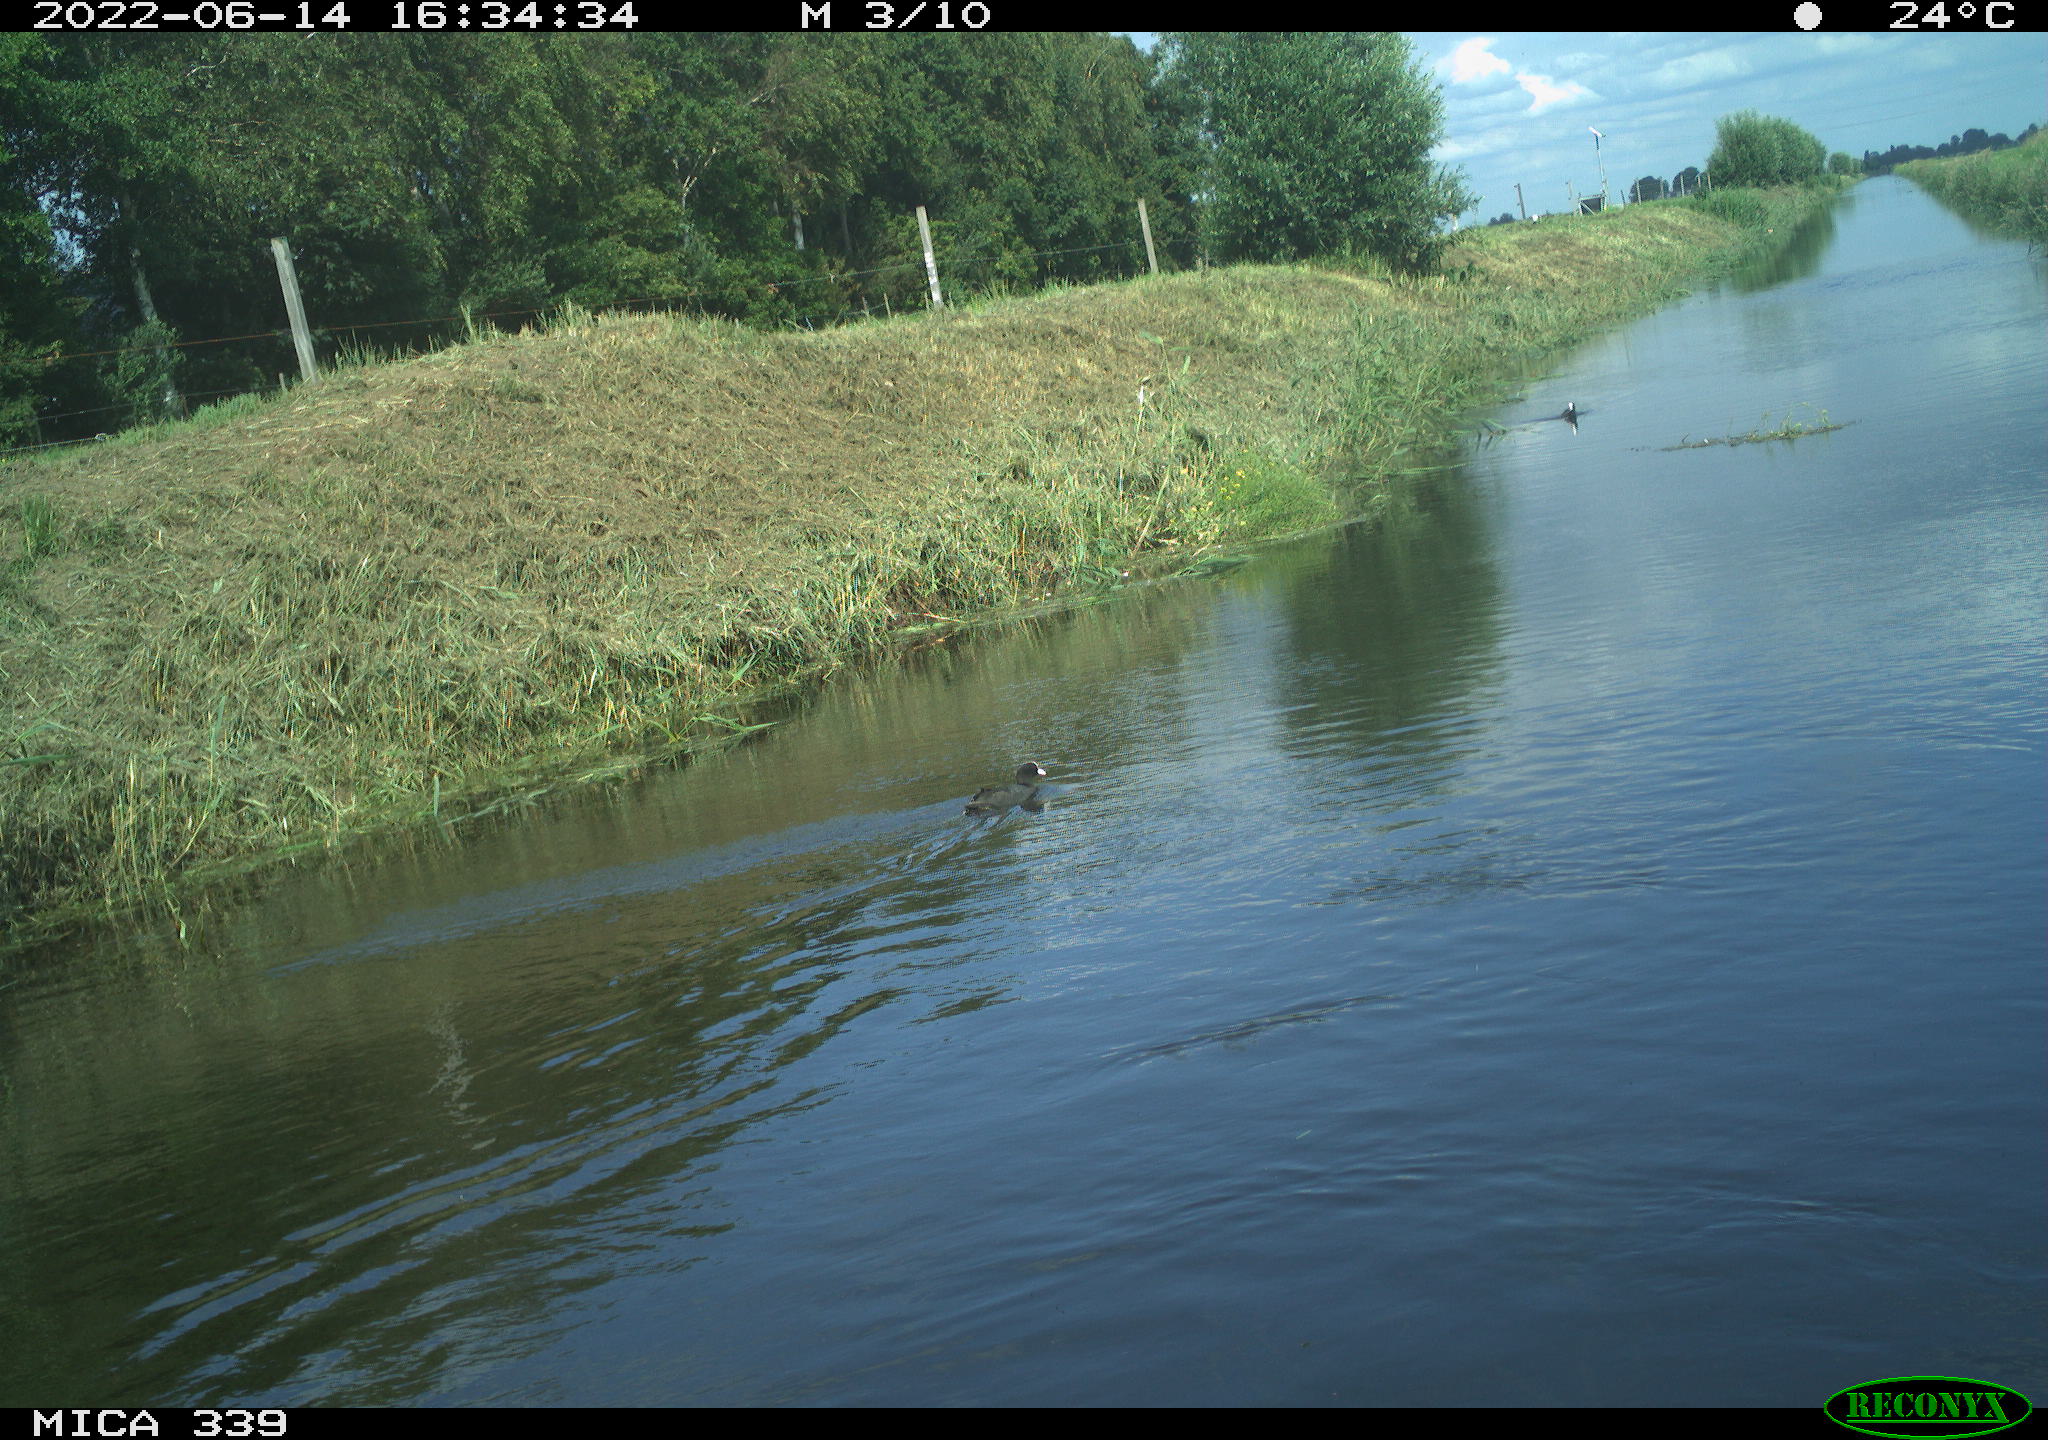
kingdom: Animalia
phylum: Chordata
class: Aves
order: Gruiformes
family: Rallidae
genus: Fulica
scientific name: Fulica atra
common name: Eurasian coot
